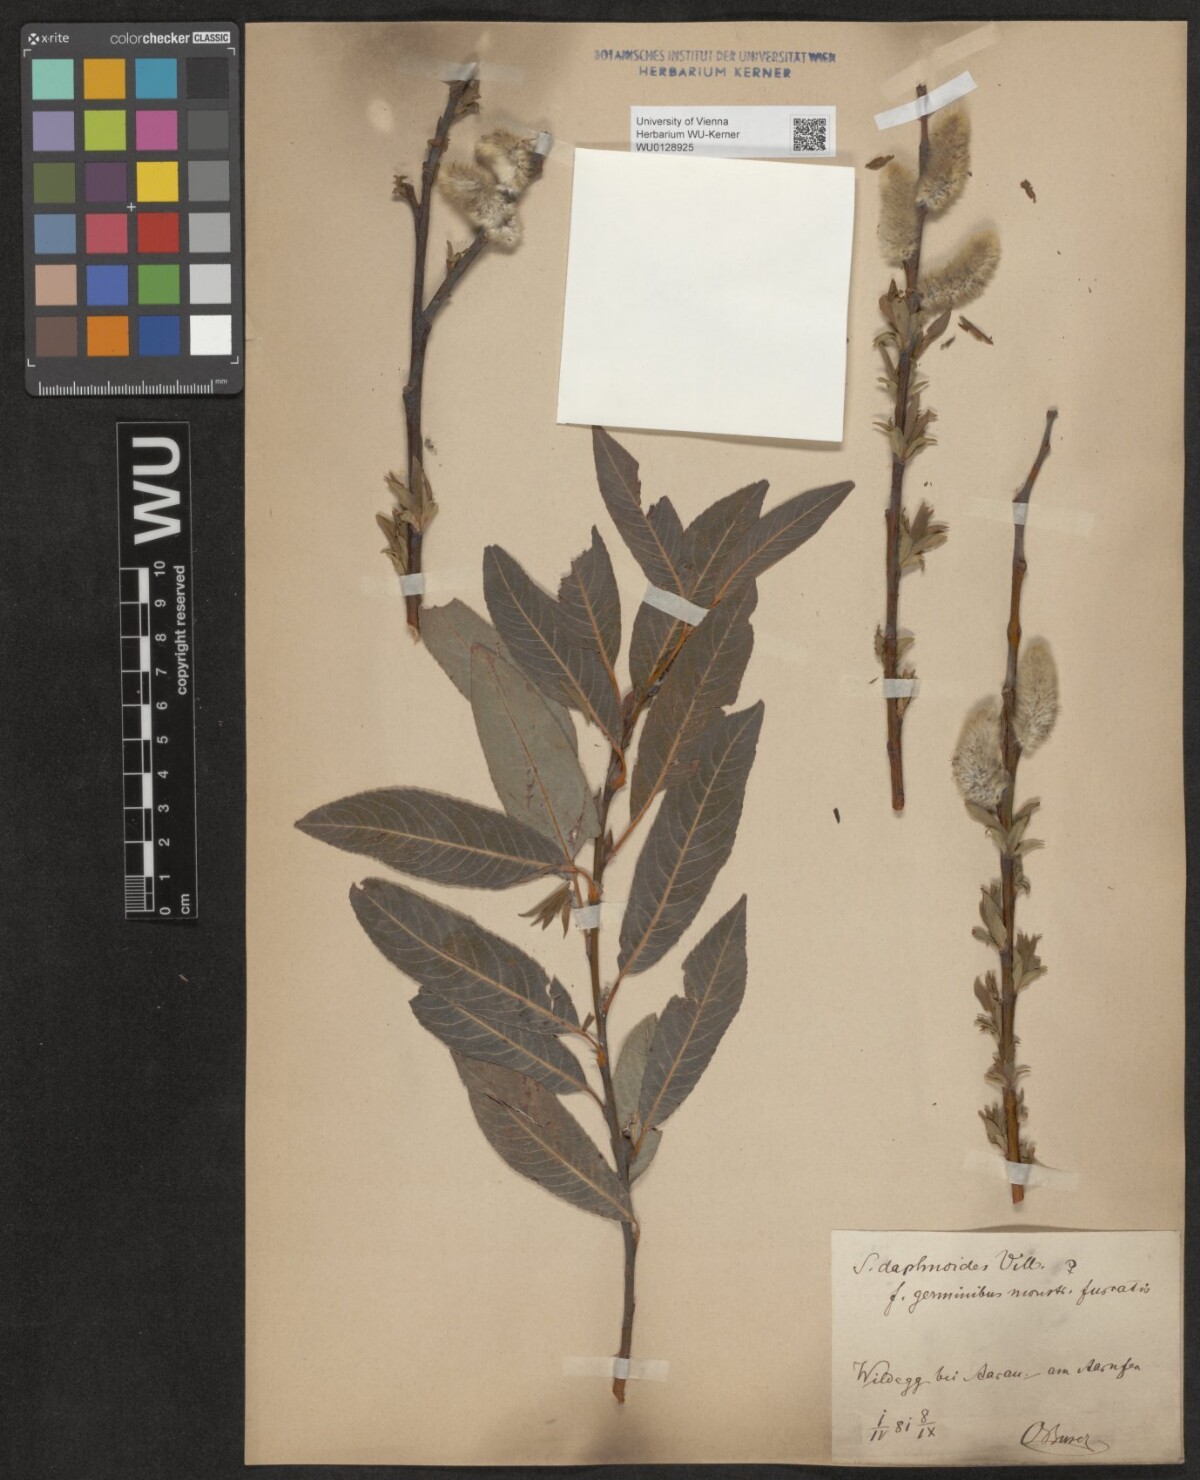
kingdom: Plantae
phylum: Tracheophyta
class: Magnoliopsida
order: Malpighiales
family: Salicaceae
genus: Salix
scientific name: Salix daphnoides
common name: European violet-willow
